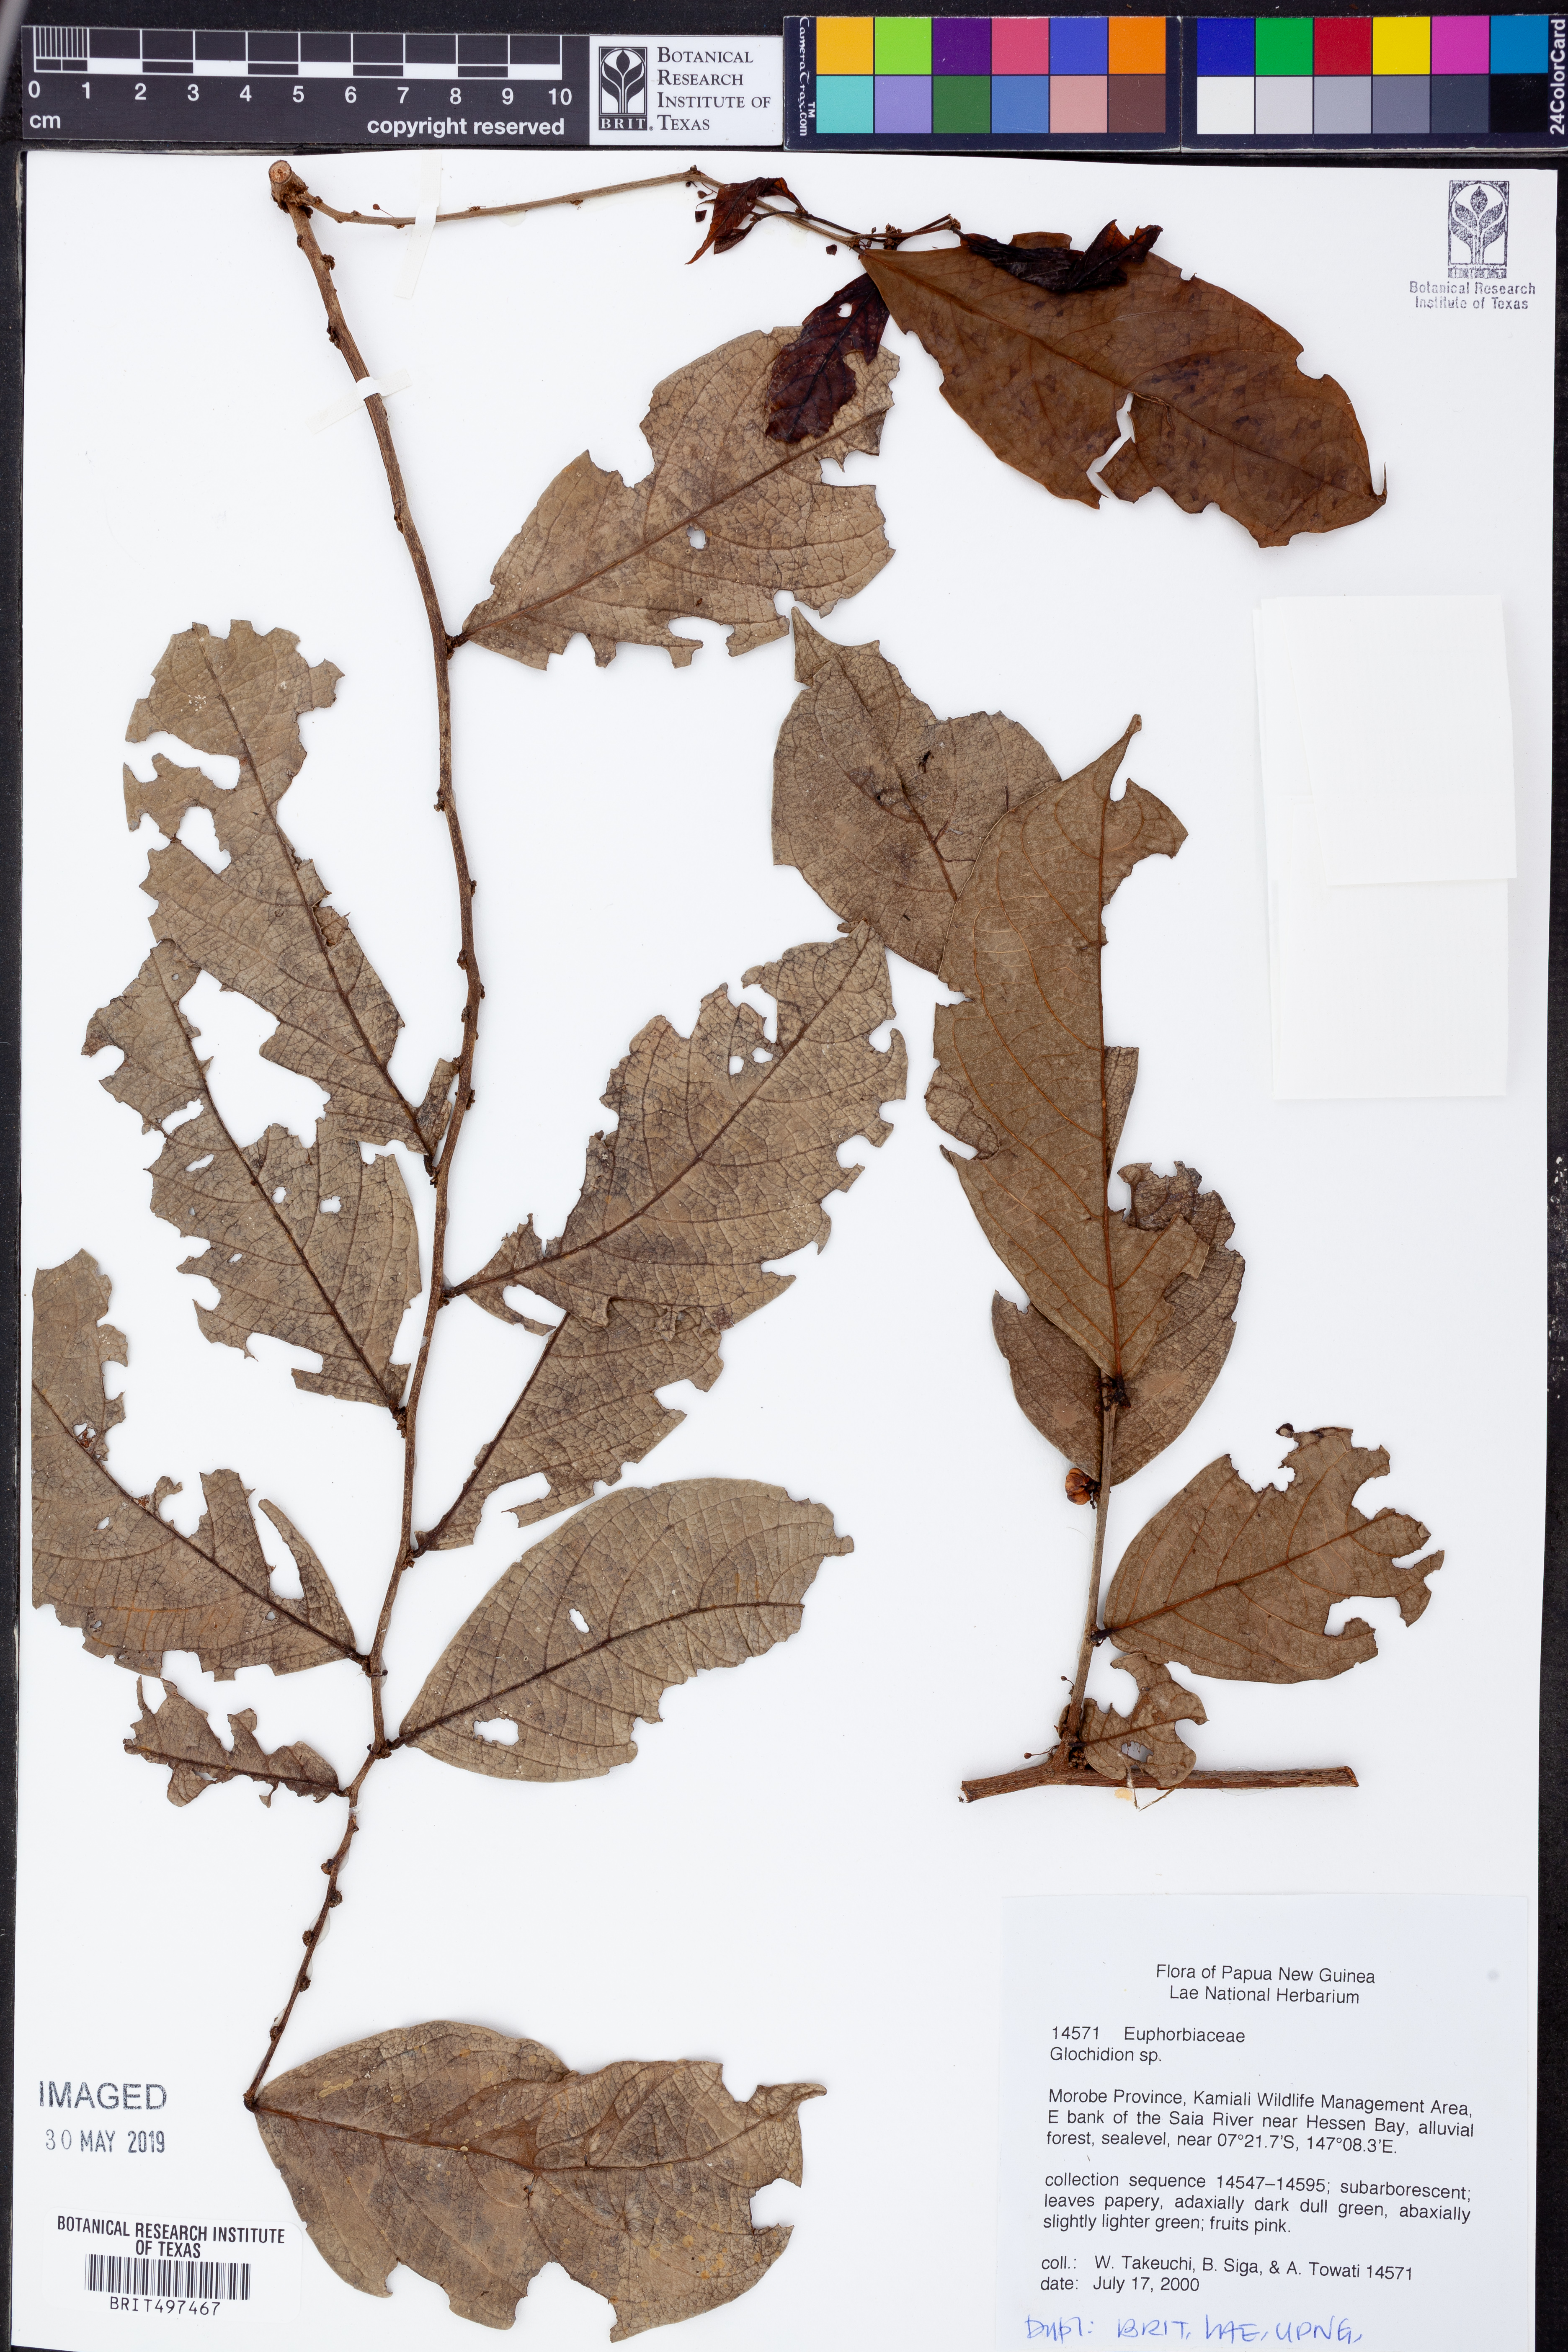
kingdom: Plantae
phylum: Tracheophyta
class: Magnoliopsida
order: Malpighiales
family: Phyllanthaceae
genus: Glochidion
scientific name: Glochidion
